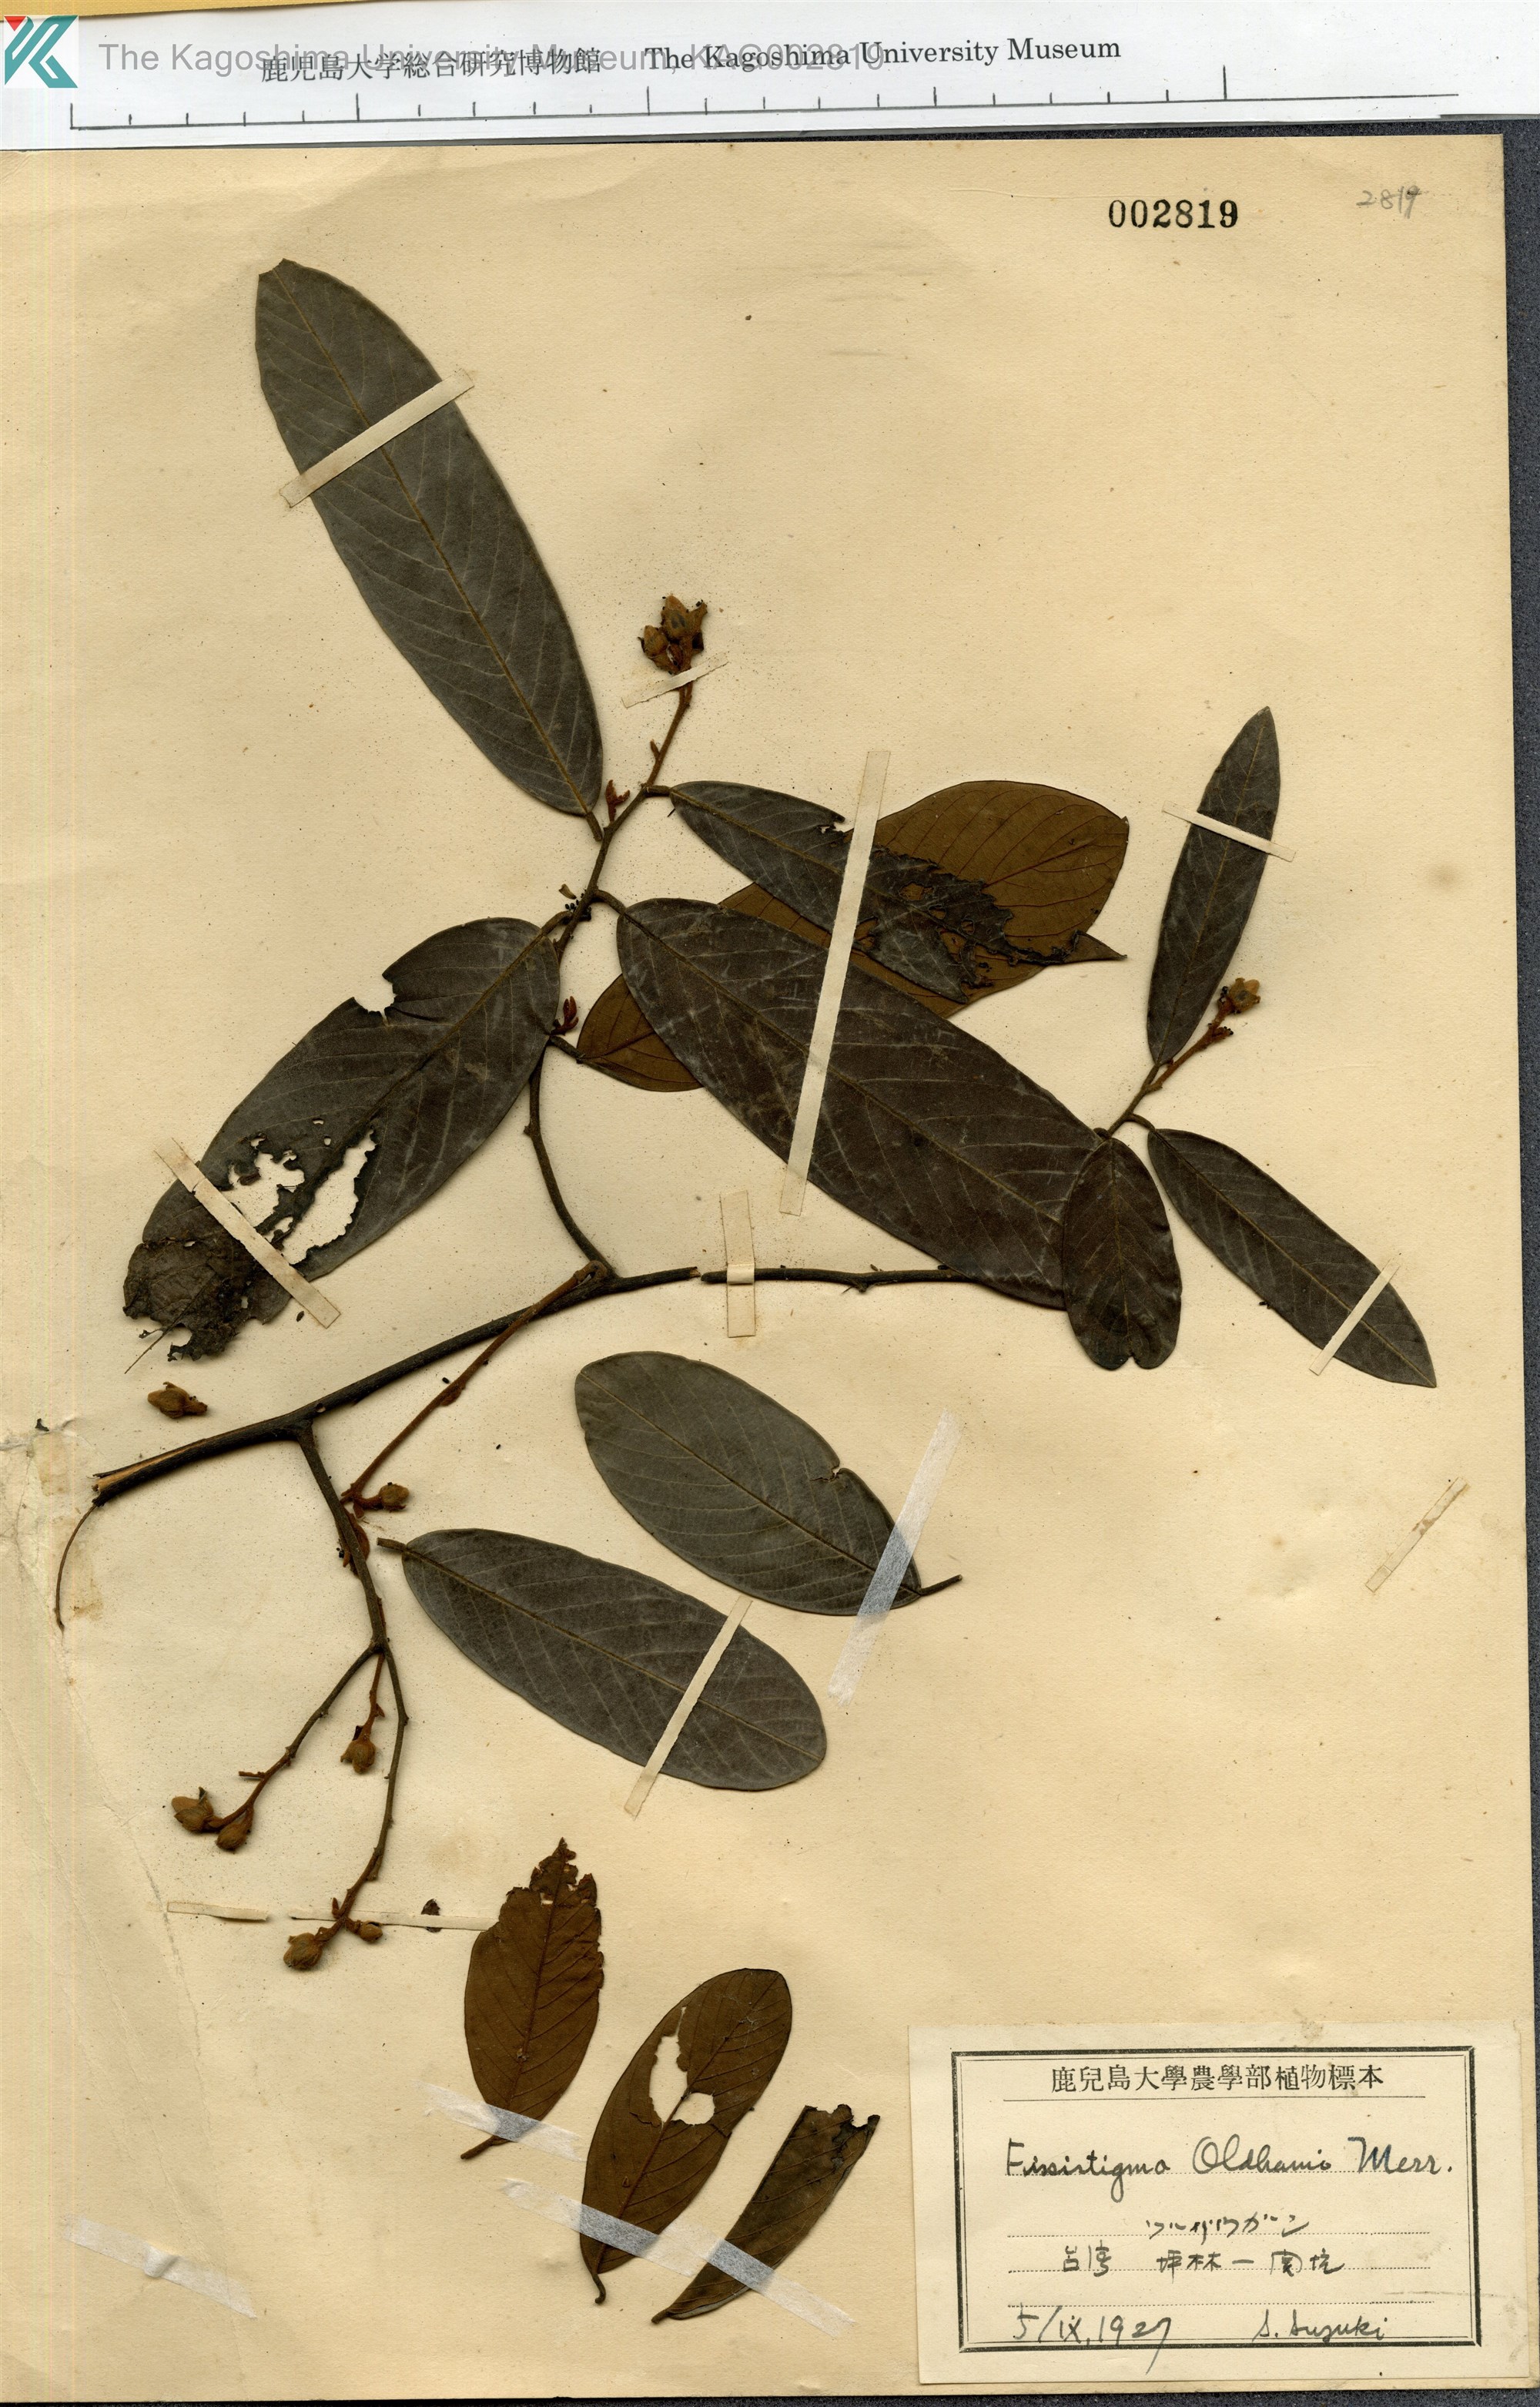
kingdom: Plantae
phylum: Tracheophyta
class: Magnoliopsida
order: Magnoliales
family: Annonaceae
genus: Fissistigma
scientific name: Fissistigma oldhamii
